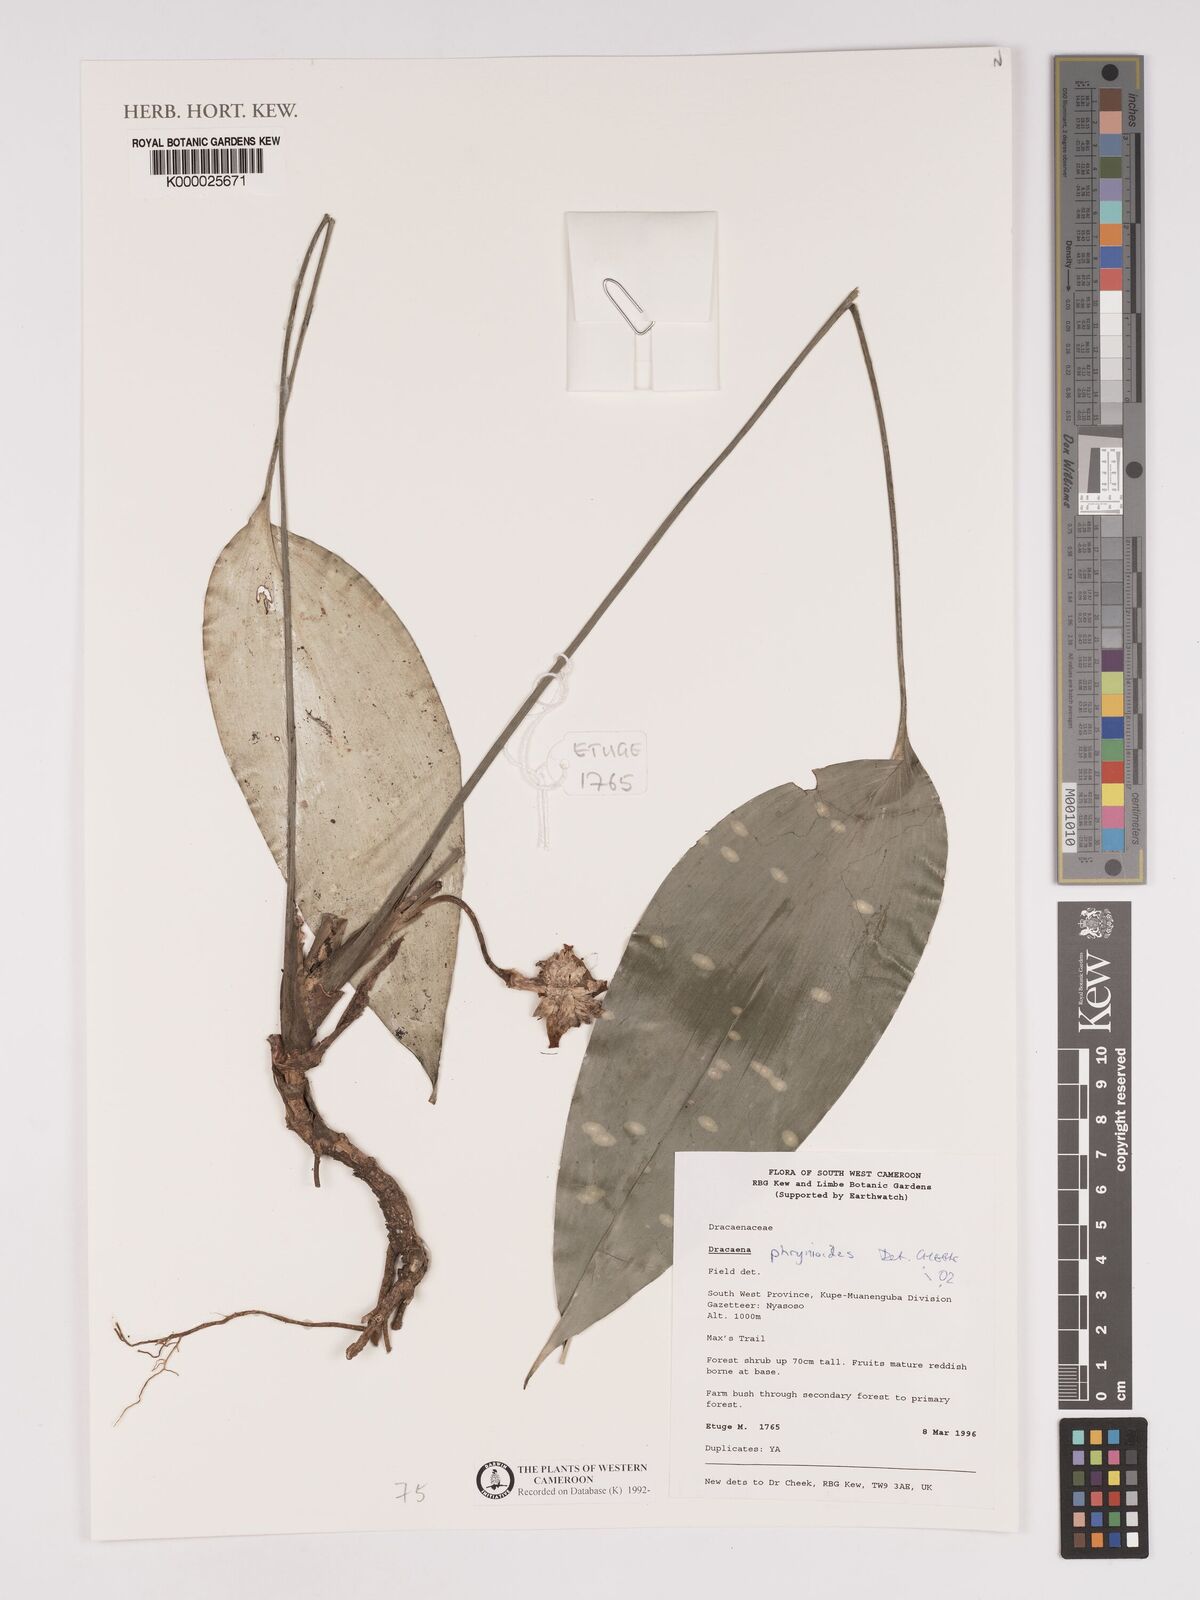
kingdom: Plantae
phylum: Tracheophyta
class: Liliopsida
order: Asparagales
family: Asparagaceae
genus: Dracaena
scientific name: Dracaena phrynioides
